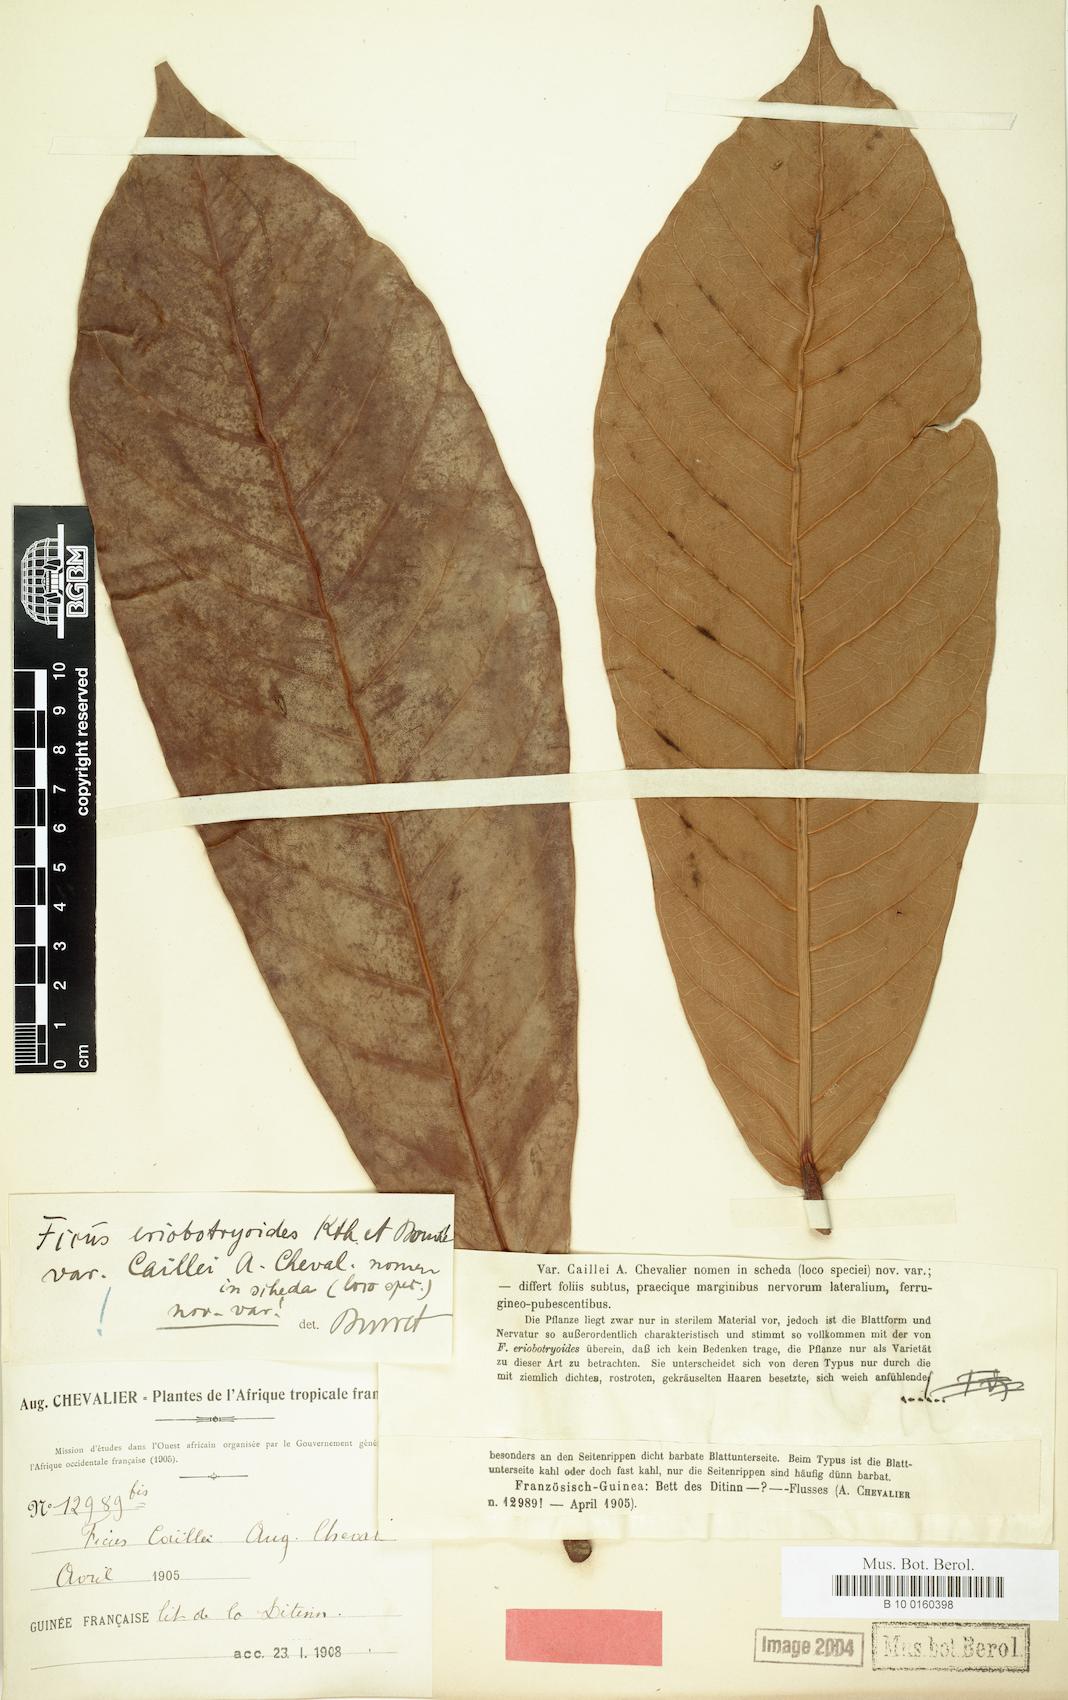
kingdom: Plantae
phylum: Tracheophyta
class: Magnoliopsida
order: Rosales
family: Moraceae
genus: Ficus
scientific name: Ficus saussureana
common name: Loquat-leaf fig
